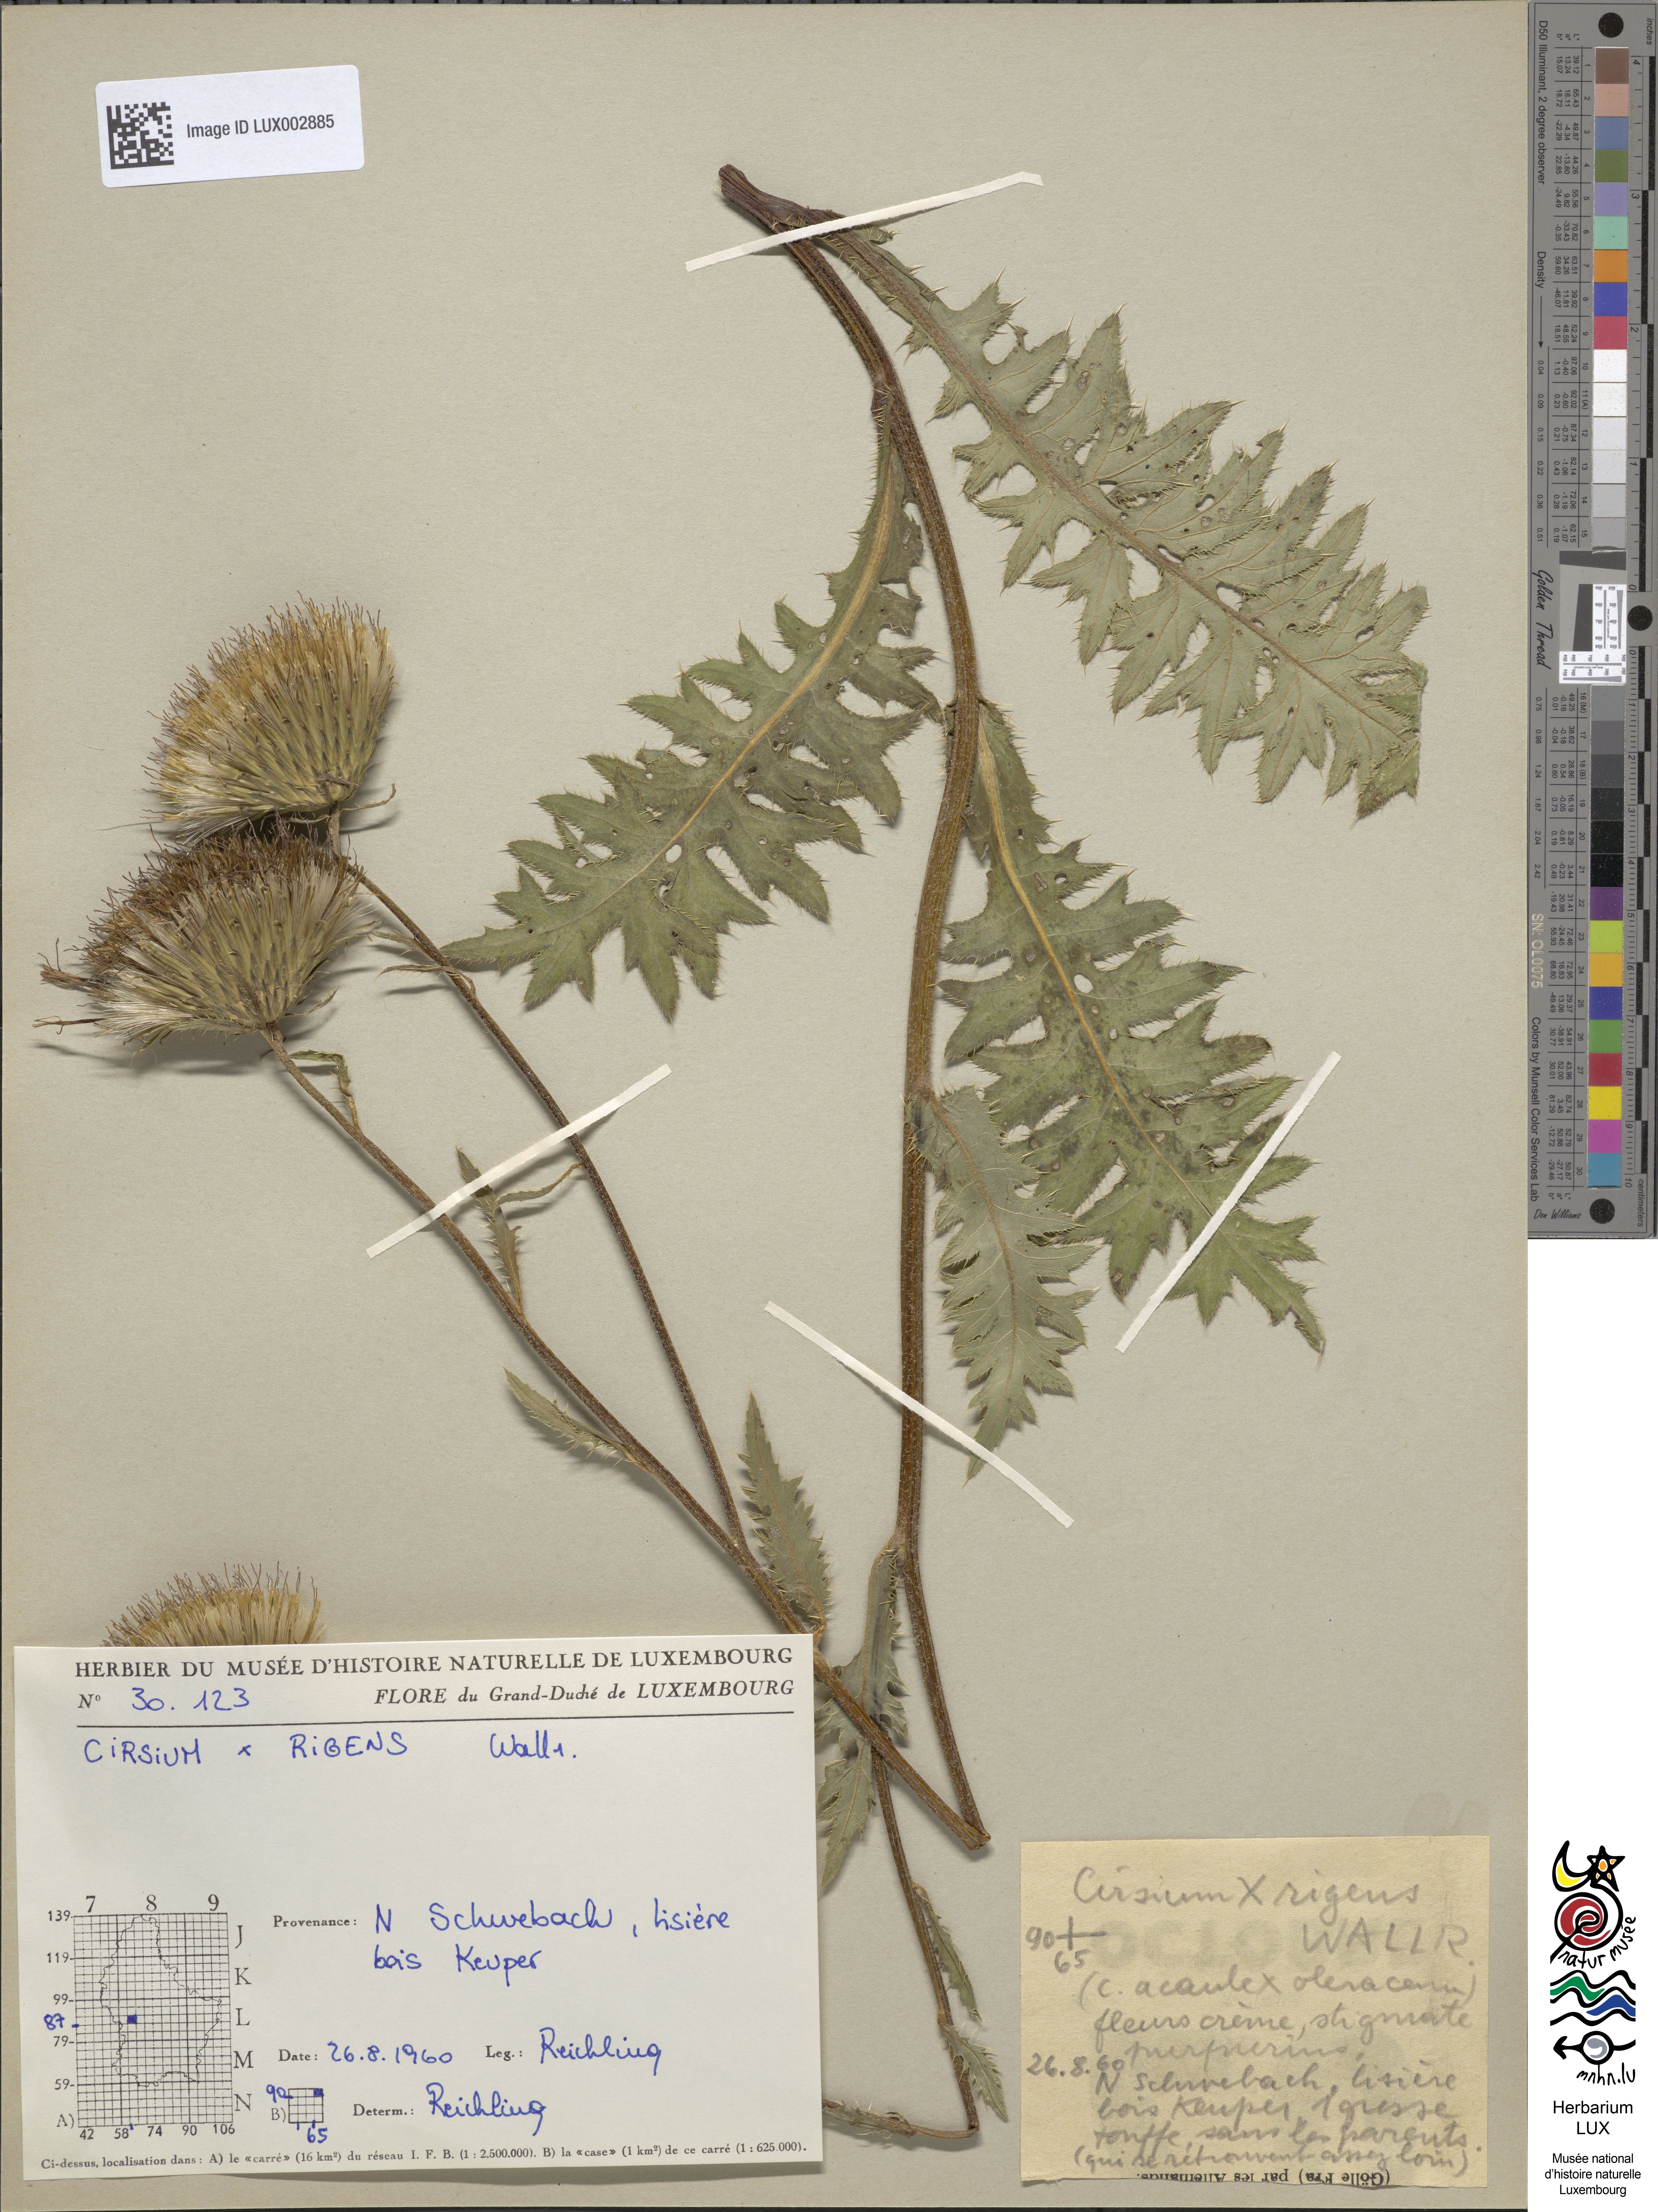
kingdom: Plantae
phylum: Tracheophyta
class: Magnoliopsida
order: Asterales
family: Asteraceae
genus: Cirsium
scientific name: Cirsium rigens
